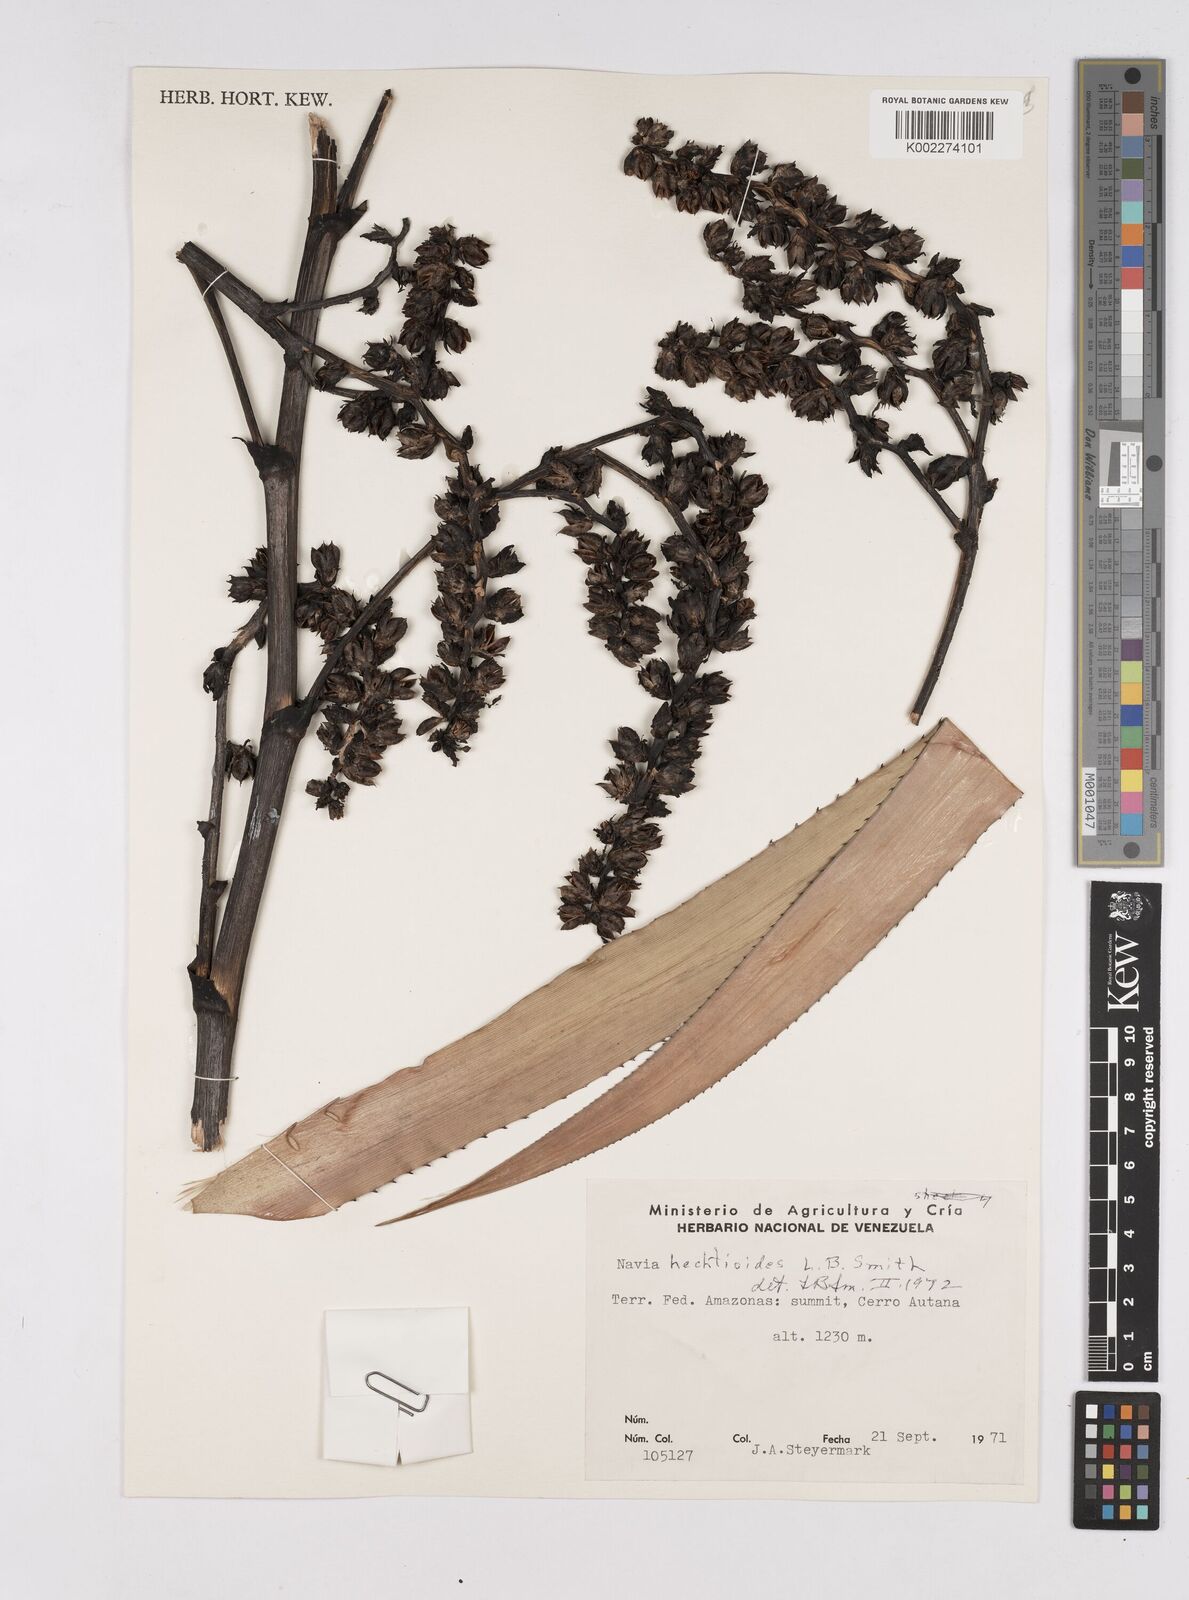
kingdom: Plantae
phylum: Tracheophyta
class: Liliopsida
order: Poales
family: Bromeliaceae
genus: Navia
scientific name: Navia hechtioides
